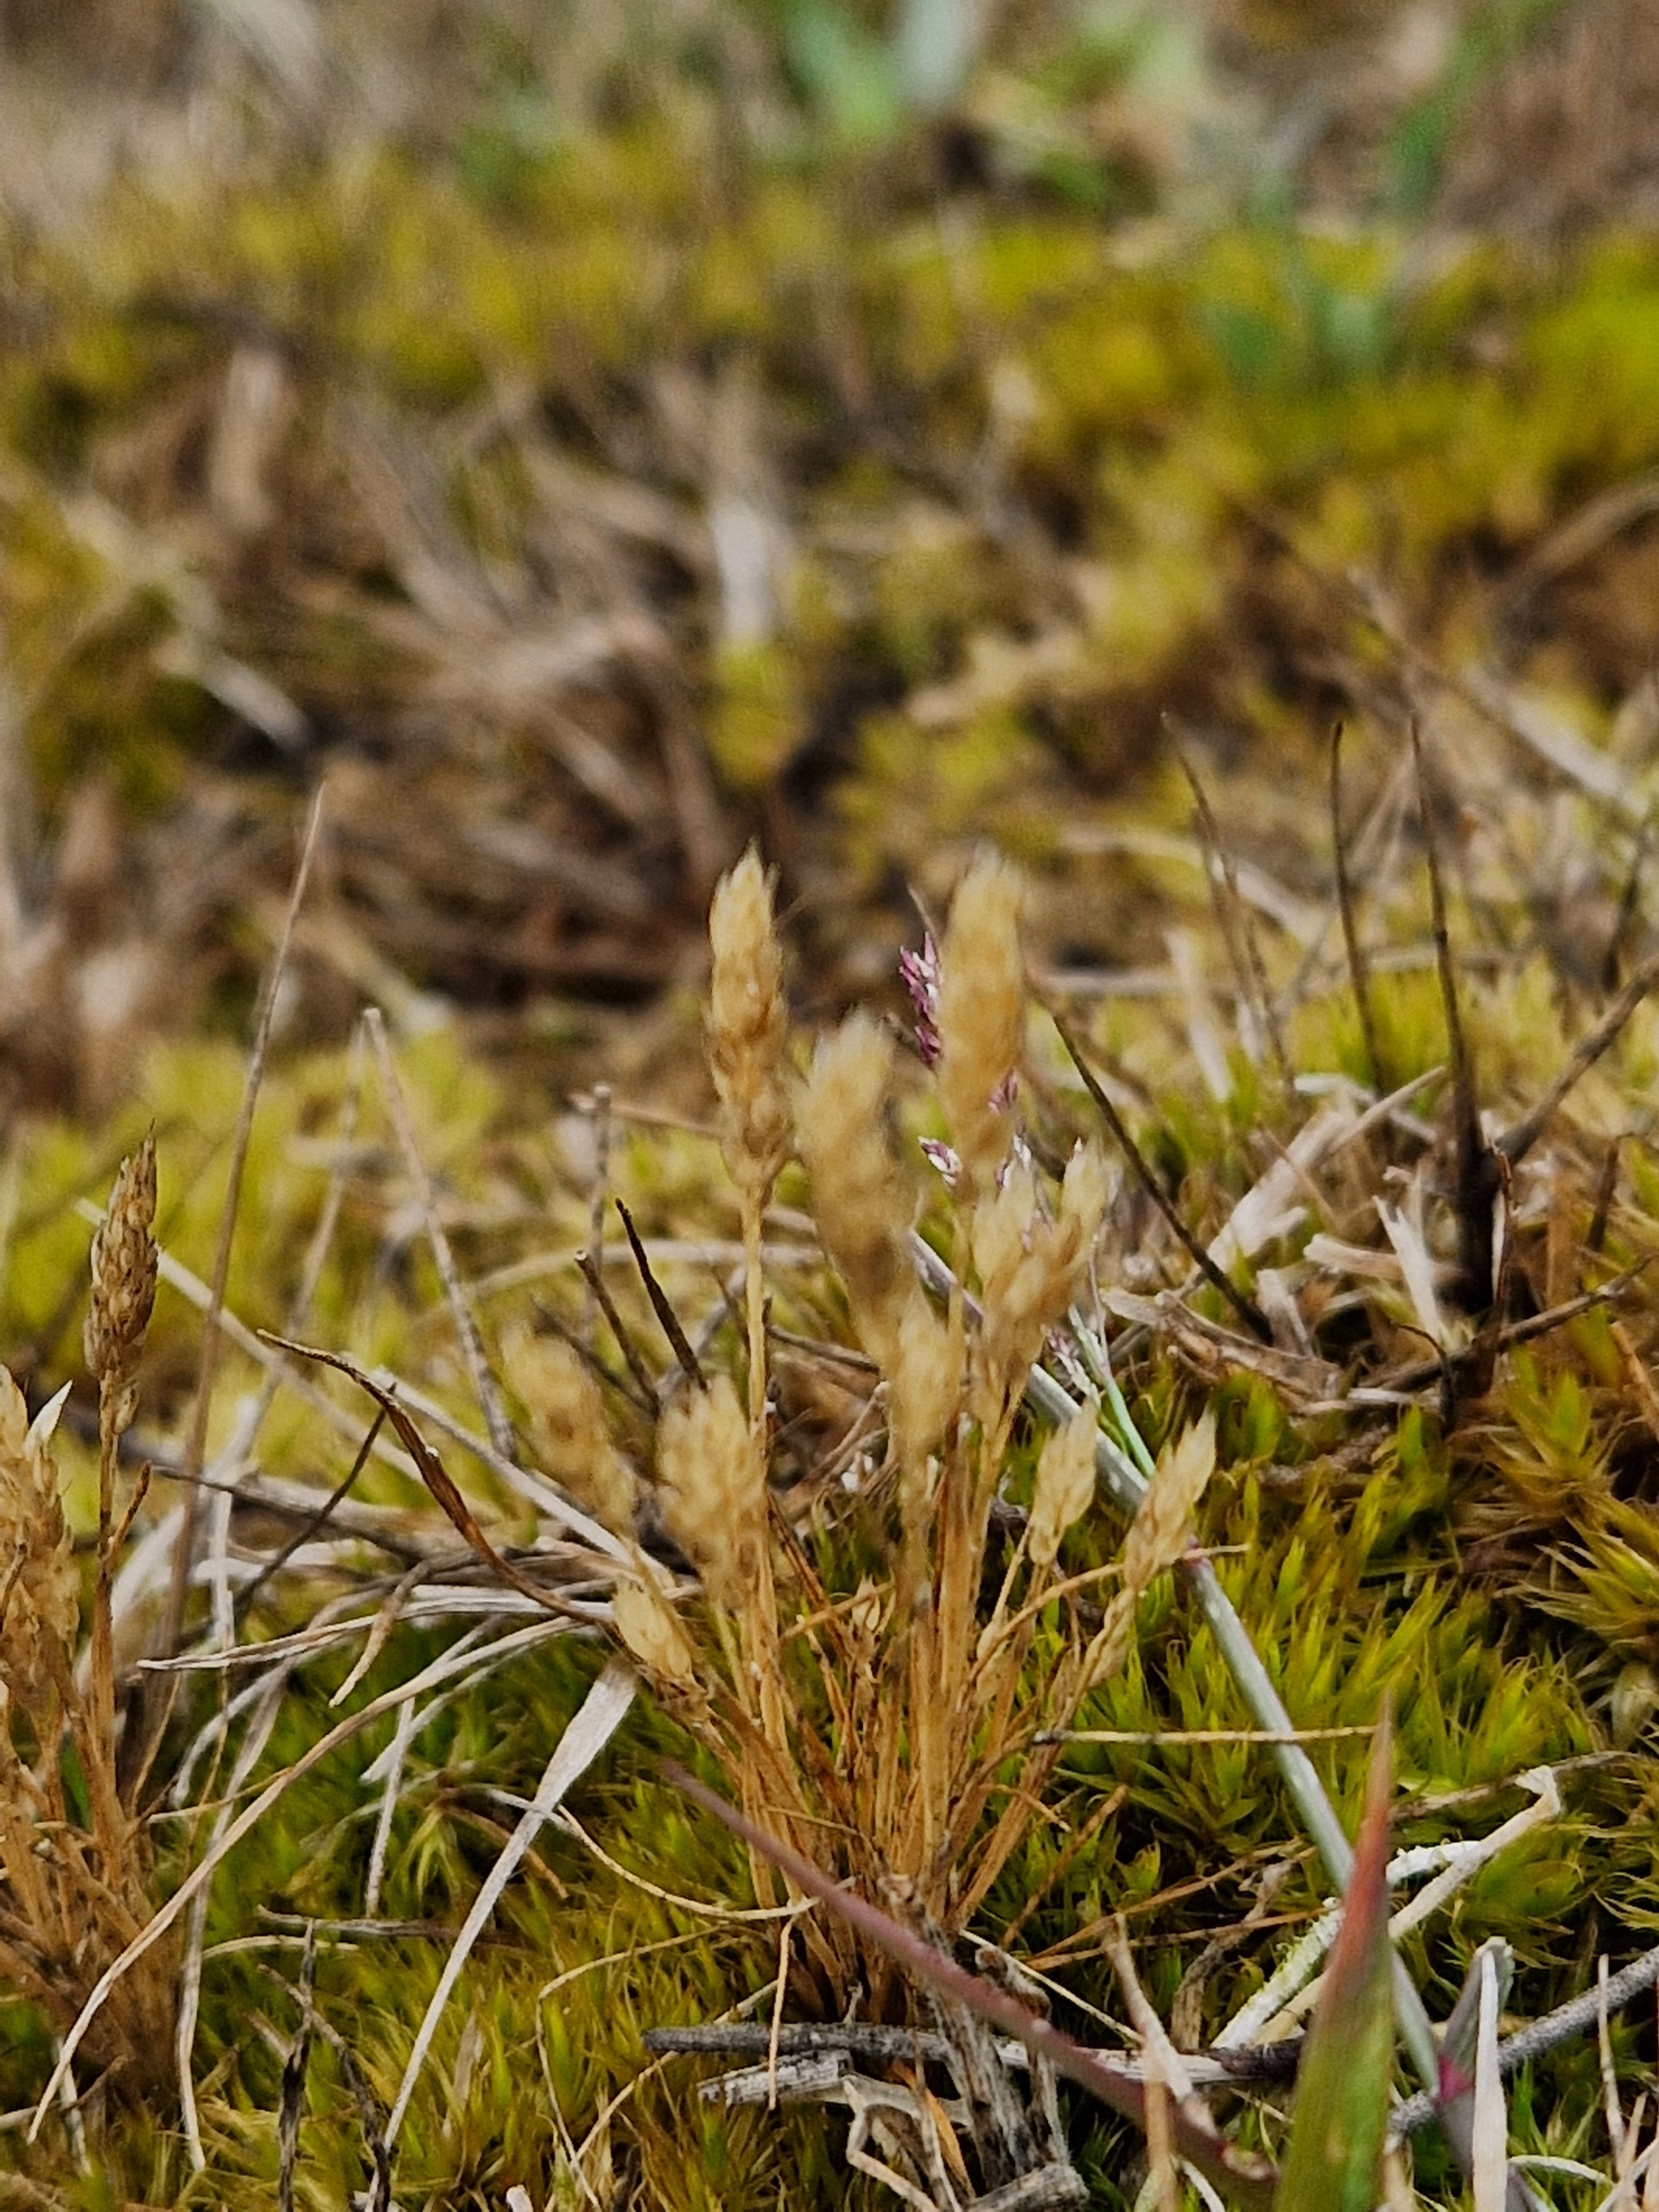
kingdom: Plantae
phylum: Tracheophyta
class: Liliopsida
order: Poales
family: Poaceae
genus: Aira
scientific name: Aira praecox
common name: Tidlig dværgbunke
